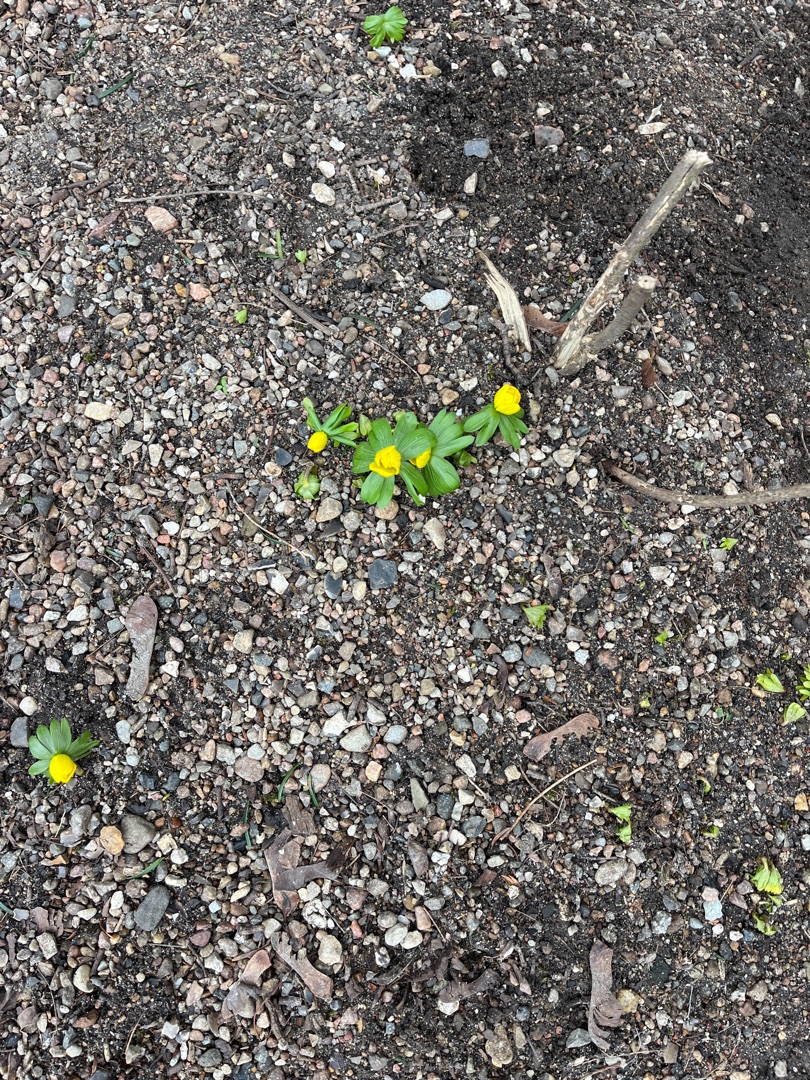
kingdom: Plantae
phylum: Tracheophyta
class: Magnoliopsida
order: Ranunculales
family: Ranunculaceae
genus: Eranthis
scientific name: Eranthis hyemalis
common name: Erantis
